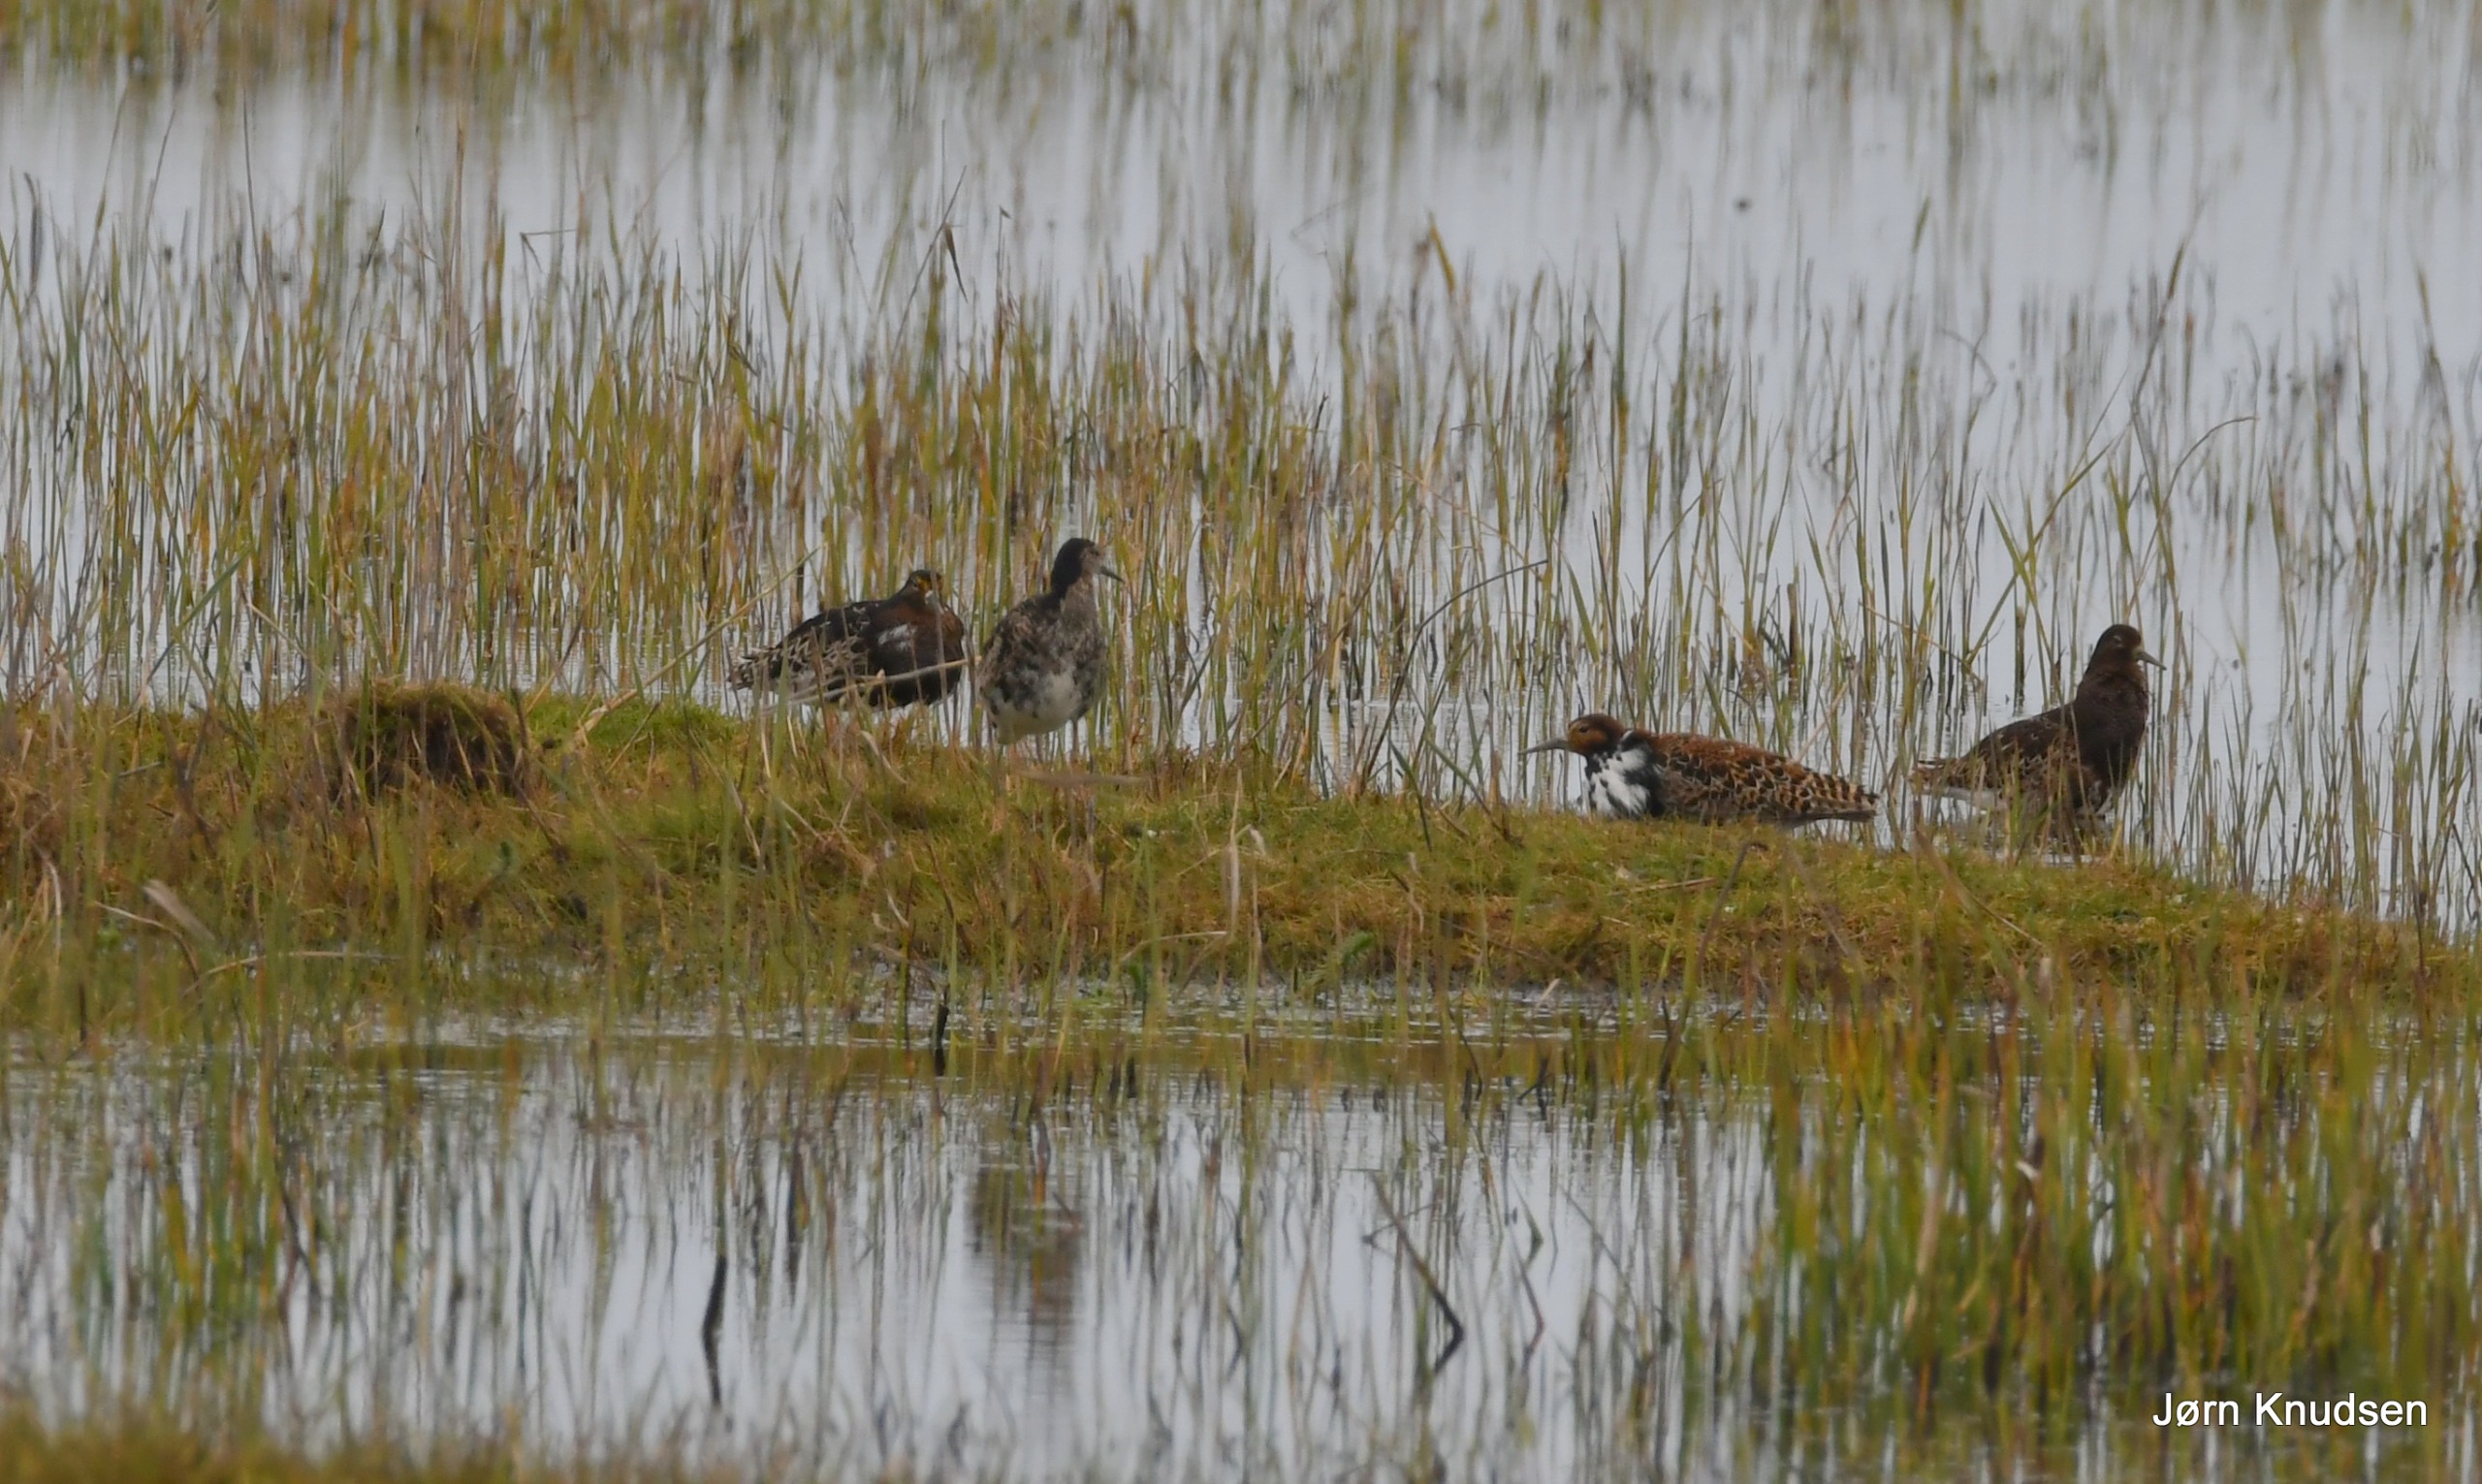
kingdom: Animalia
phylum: Chordata
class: Aves
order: Charadriiformes
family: Scolopacidae
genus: Calidris
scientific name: Calidris pugnax
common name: Brushane
